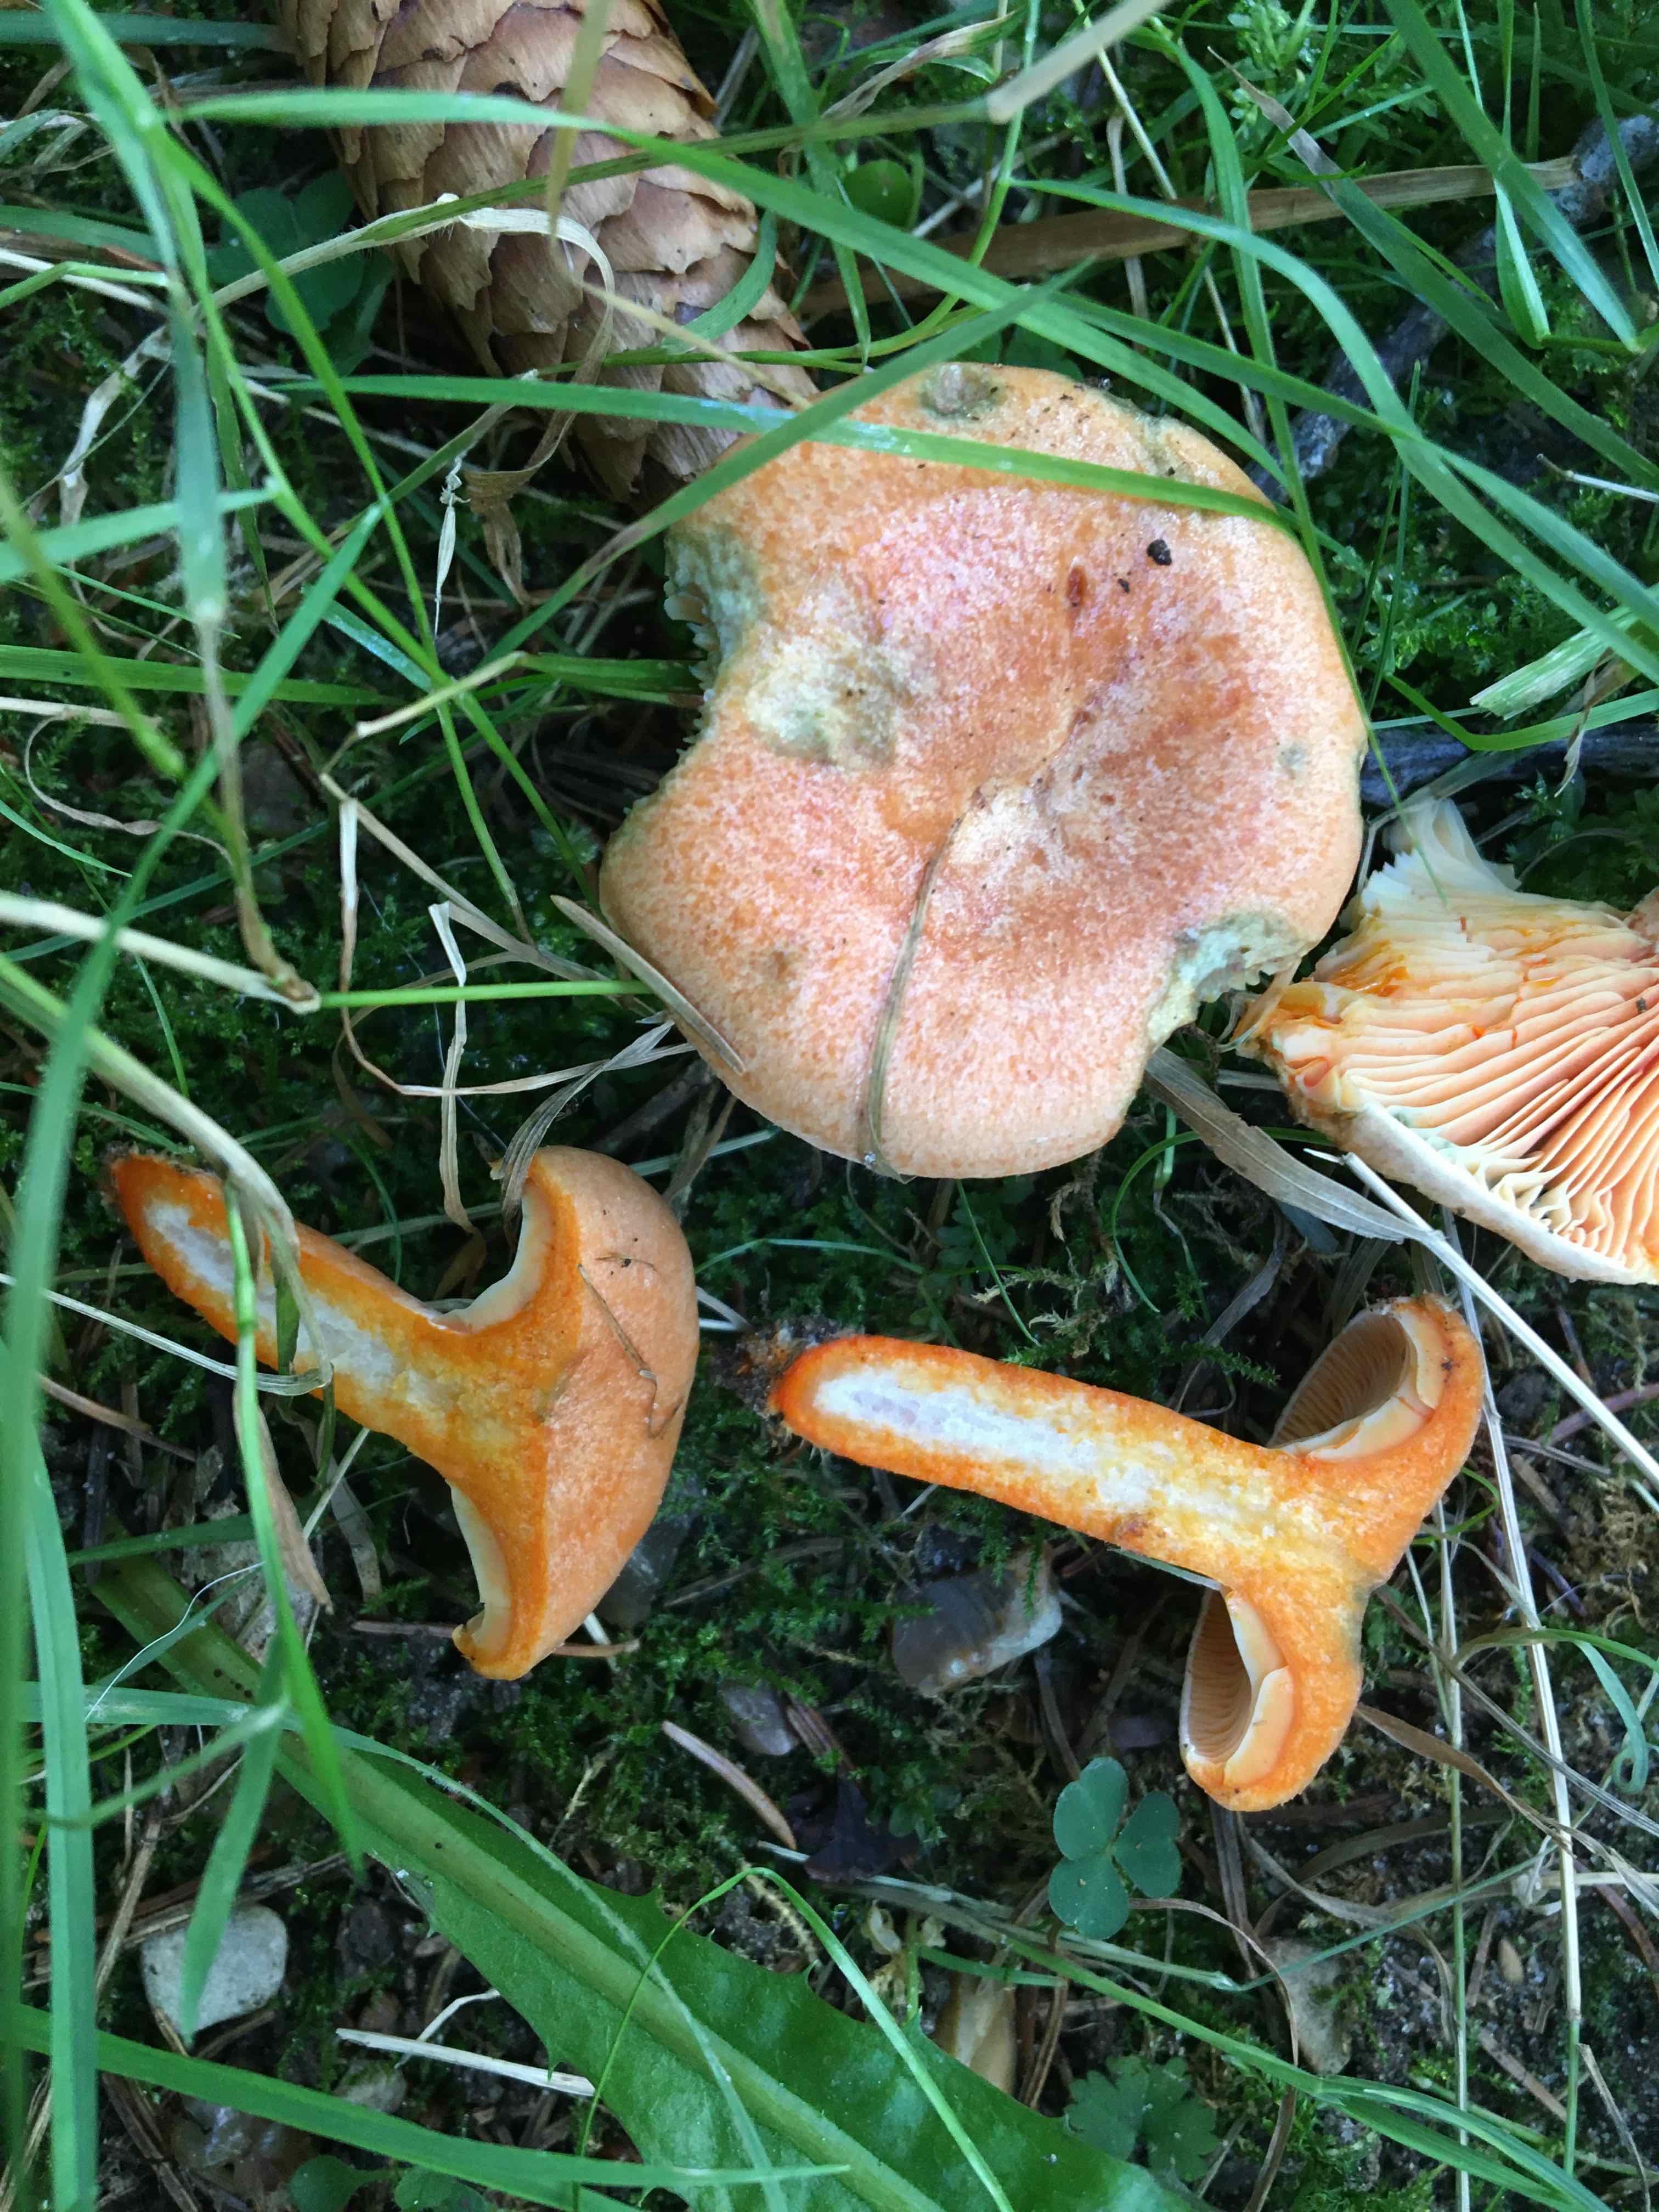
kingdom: Fungi
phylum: Basidiomycota
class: Agaricomycetes
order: Russulales
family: Russulaceae
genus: Lactarius
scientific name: Lactarius deterrimus
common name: gran-mælkehat
